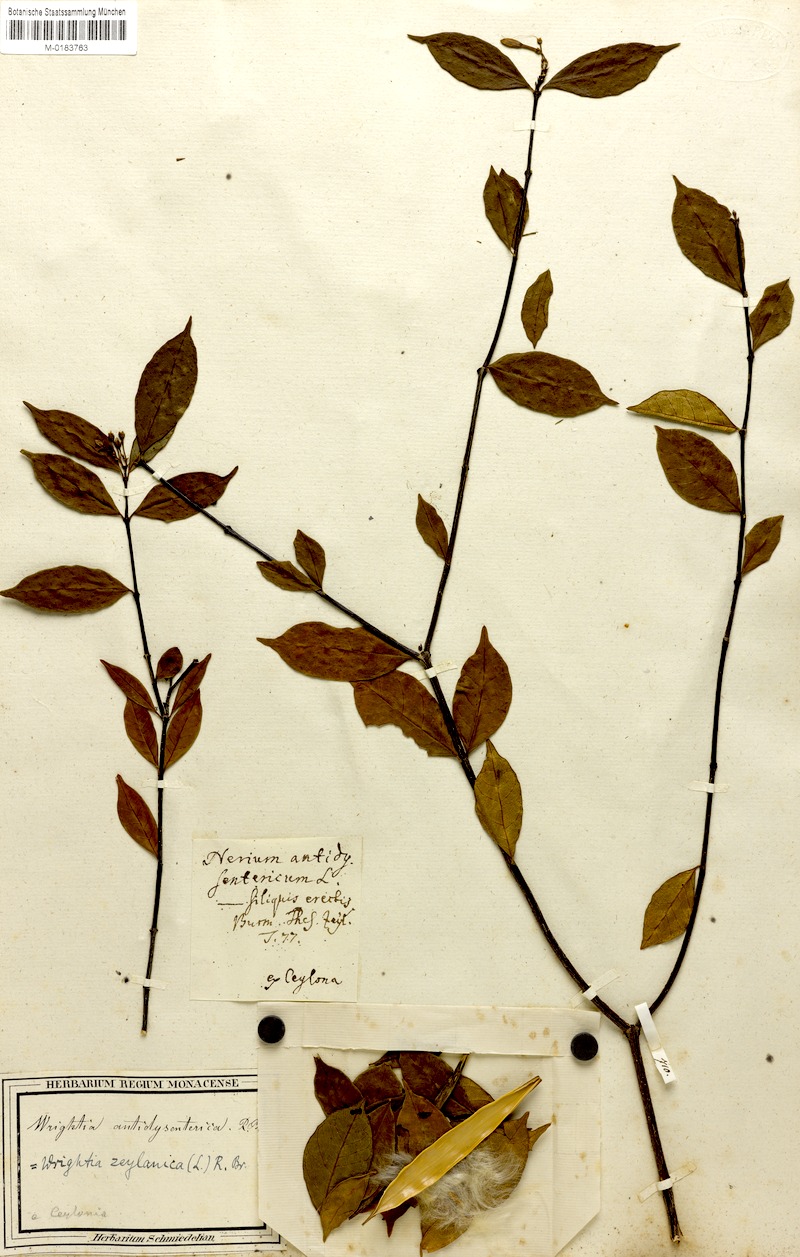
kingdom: Plantae
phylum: Tracheophyta
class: Magnoliopsida
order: Gentianales
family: Apocynaceae
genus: Wrightia
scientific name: Wrightia antidysenterica
